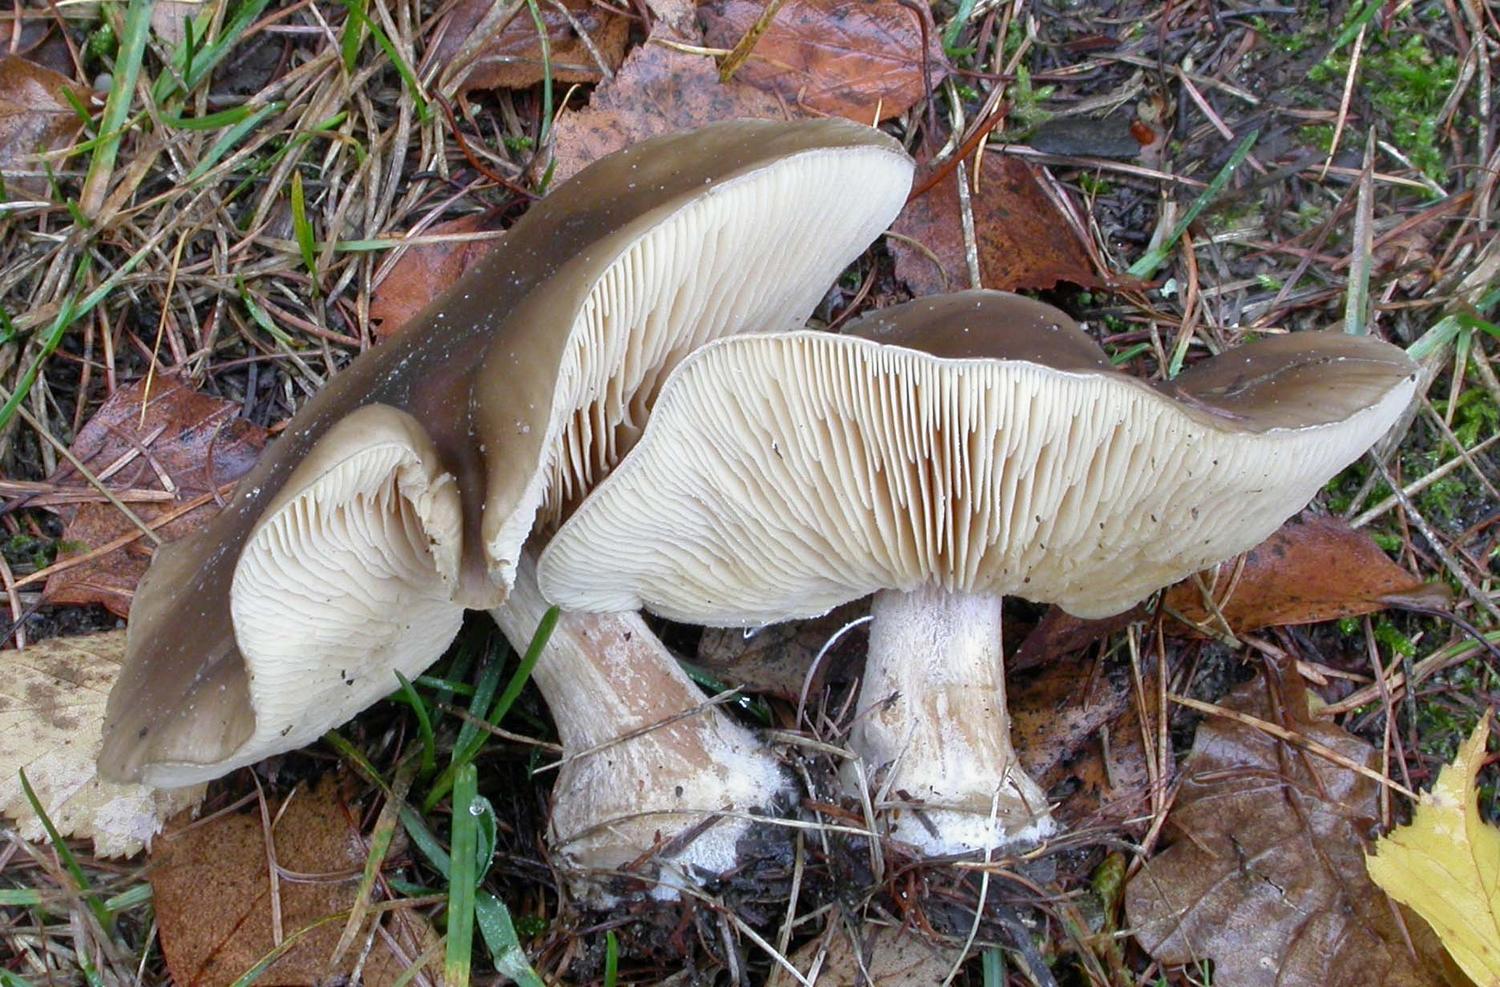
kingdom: Fungi
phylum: Basidiomycota
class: Agaricomycetes
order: Agaricales
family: Tricholomataceae
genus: Melanoleuca
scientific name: Melanoleuca
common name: munkehat
